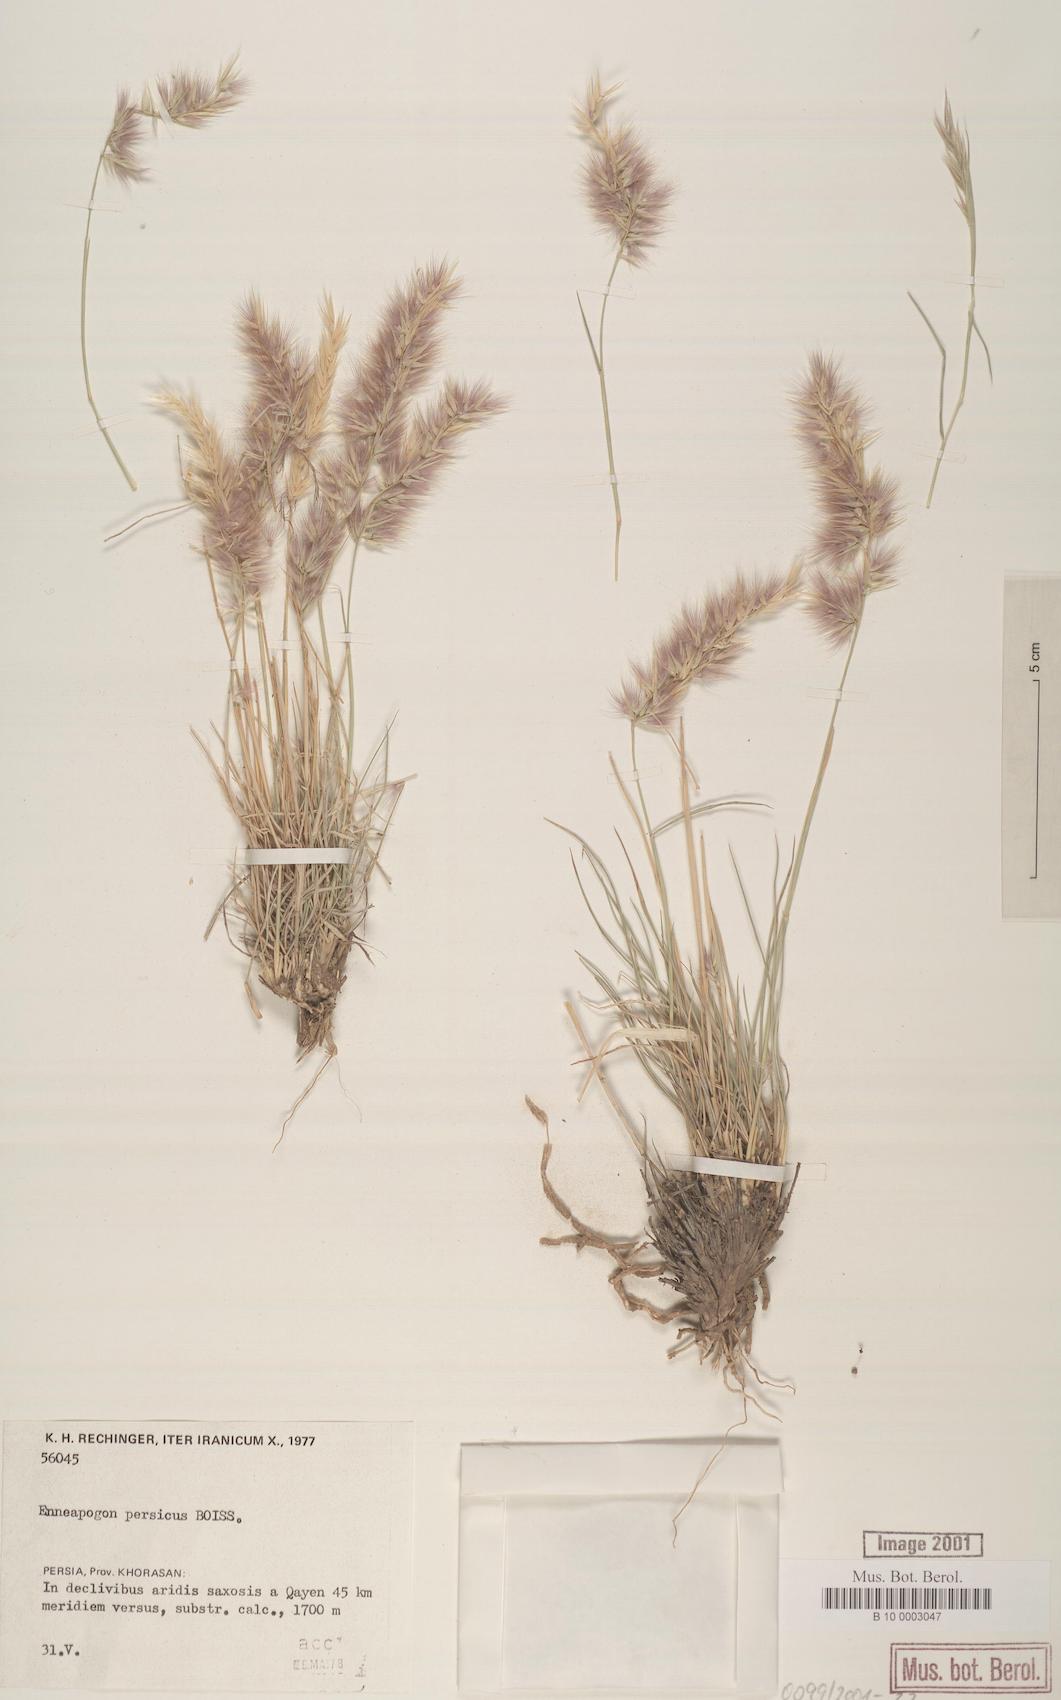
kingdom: Plantae
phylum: Tracheophyta
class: Liliopsida
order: Poales
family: Poaceae
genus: Enneapogon
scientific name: Enneapogon persicus
